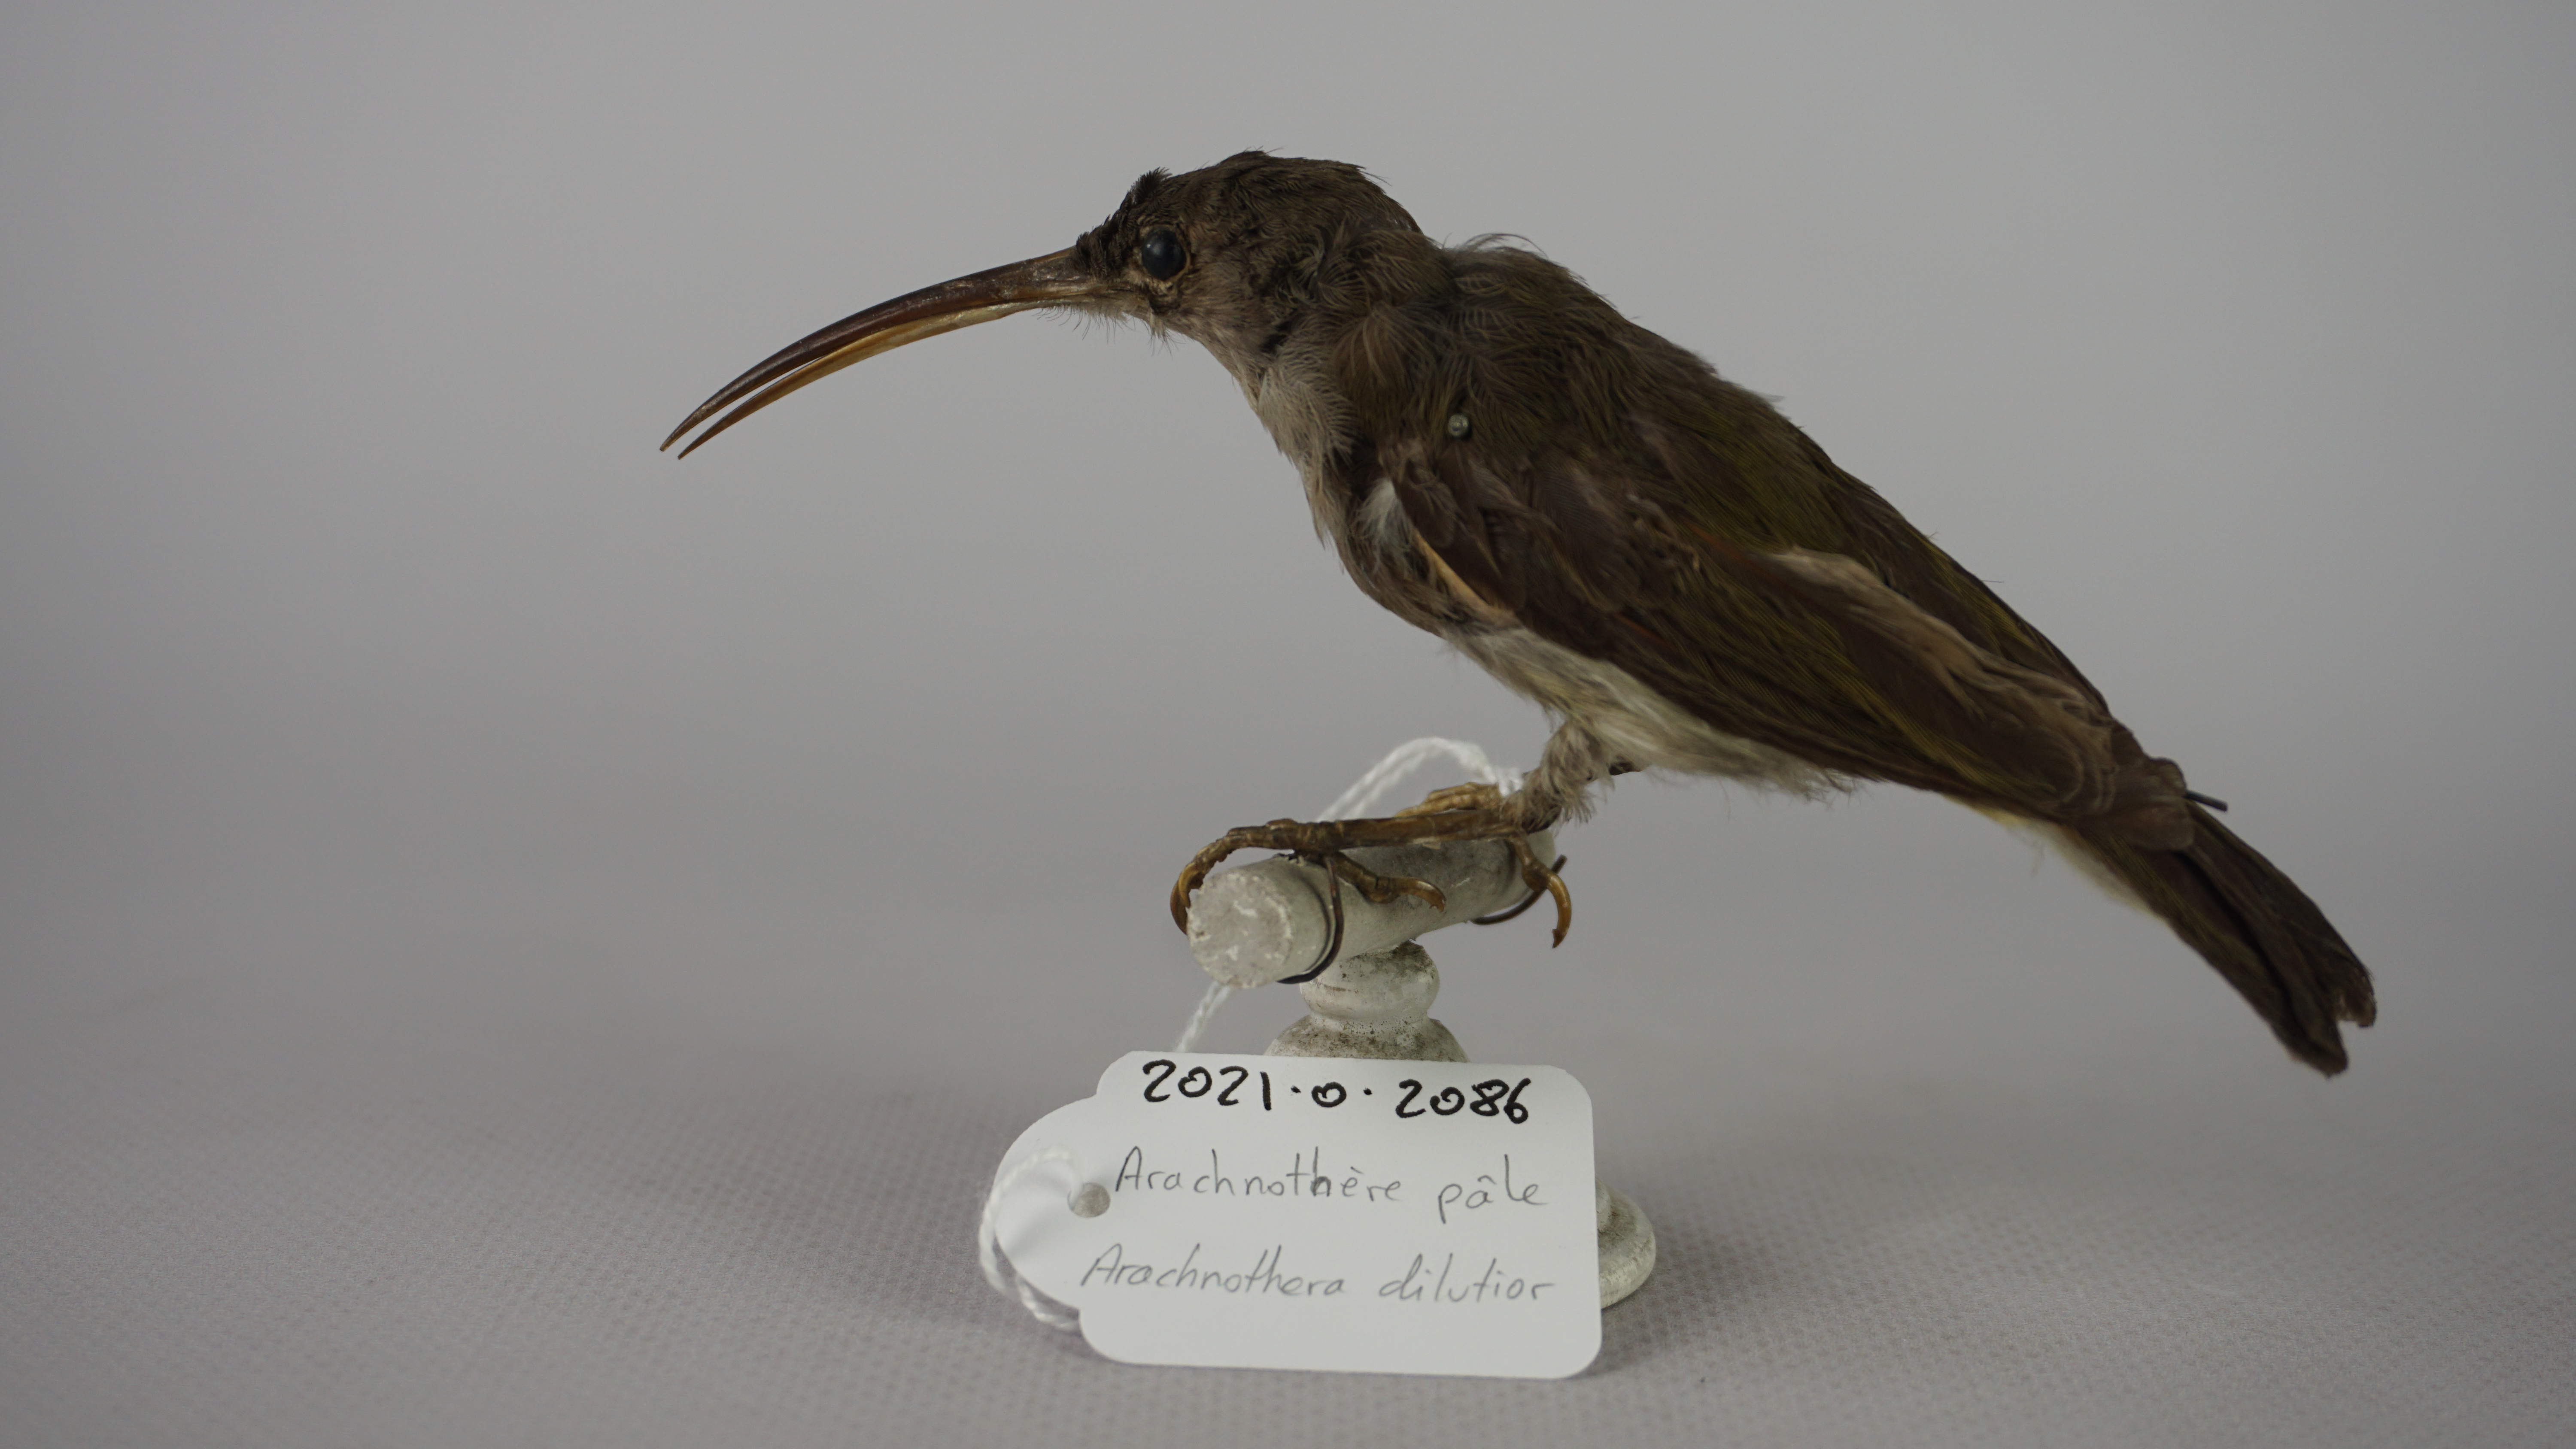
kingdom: Animalia
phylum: Chordata
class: Aves
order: Passeriformes
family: Nectariniidae
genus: Arachnothera
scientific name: Arachnothera dilutior
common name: Pale spiderhunter
